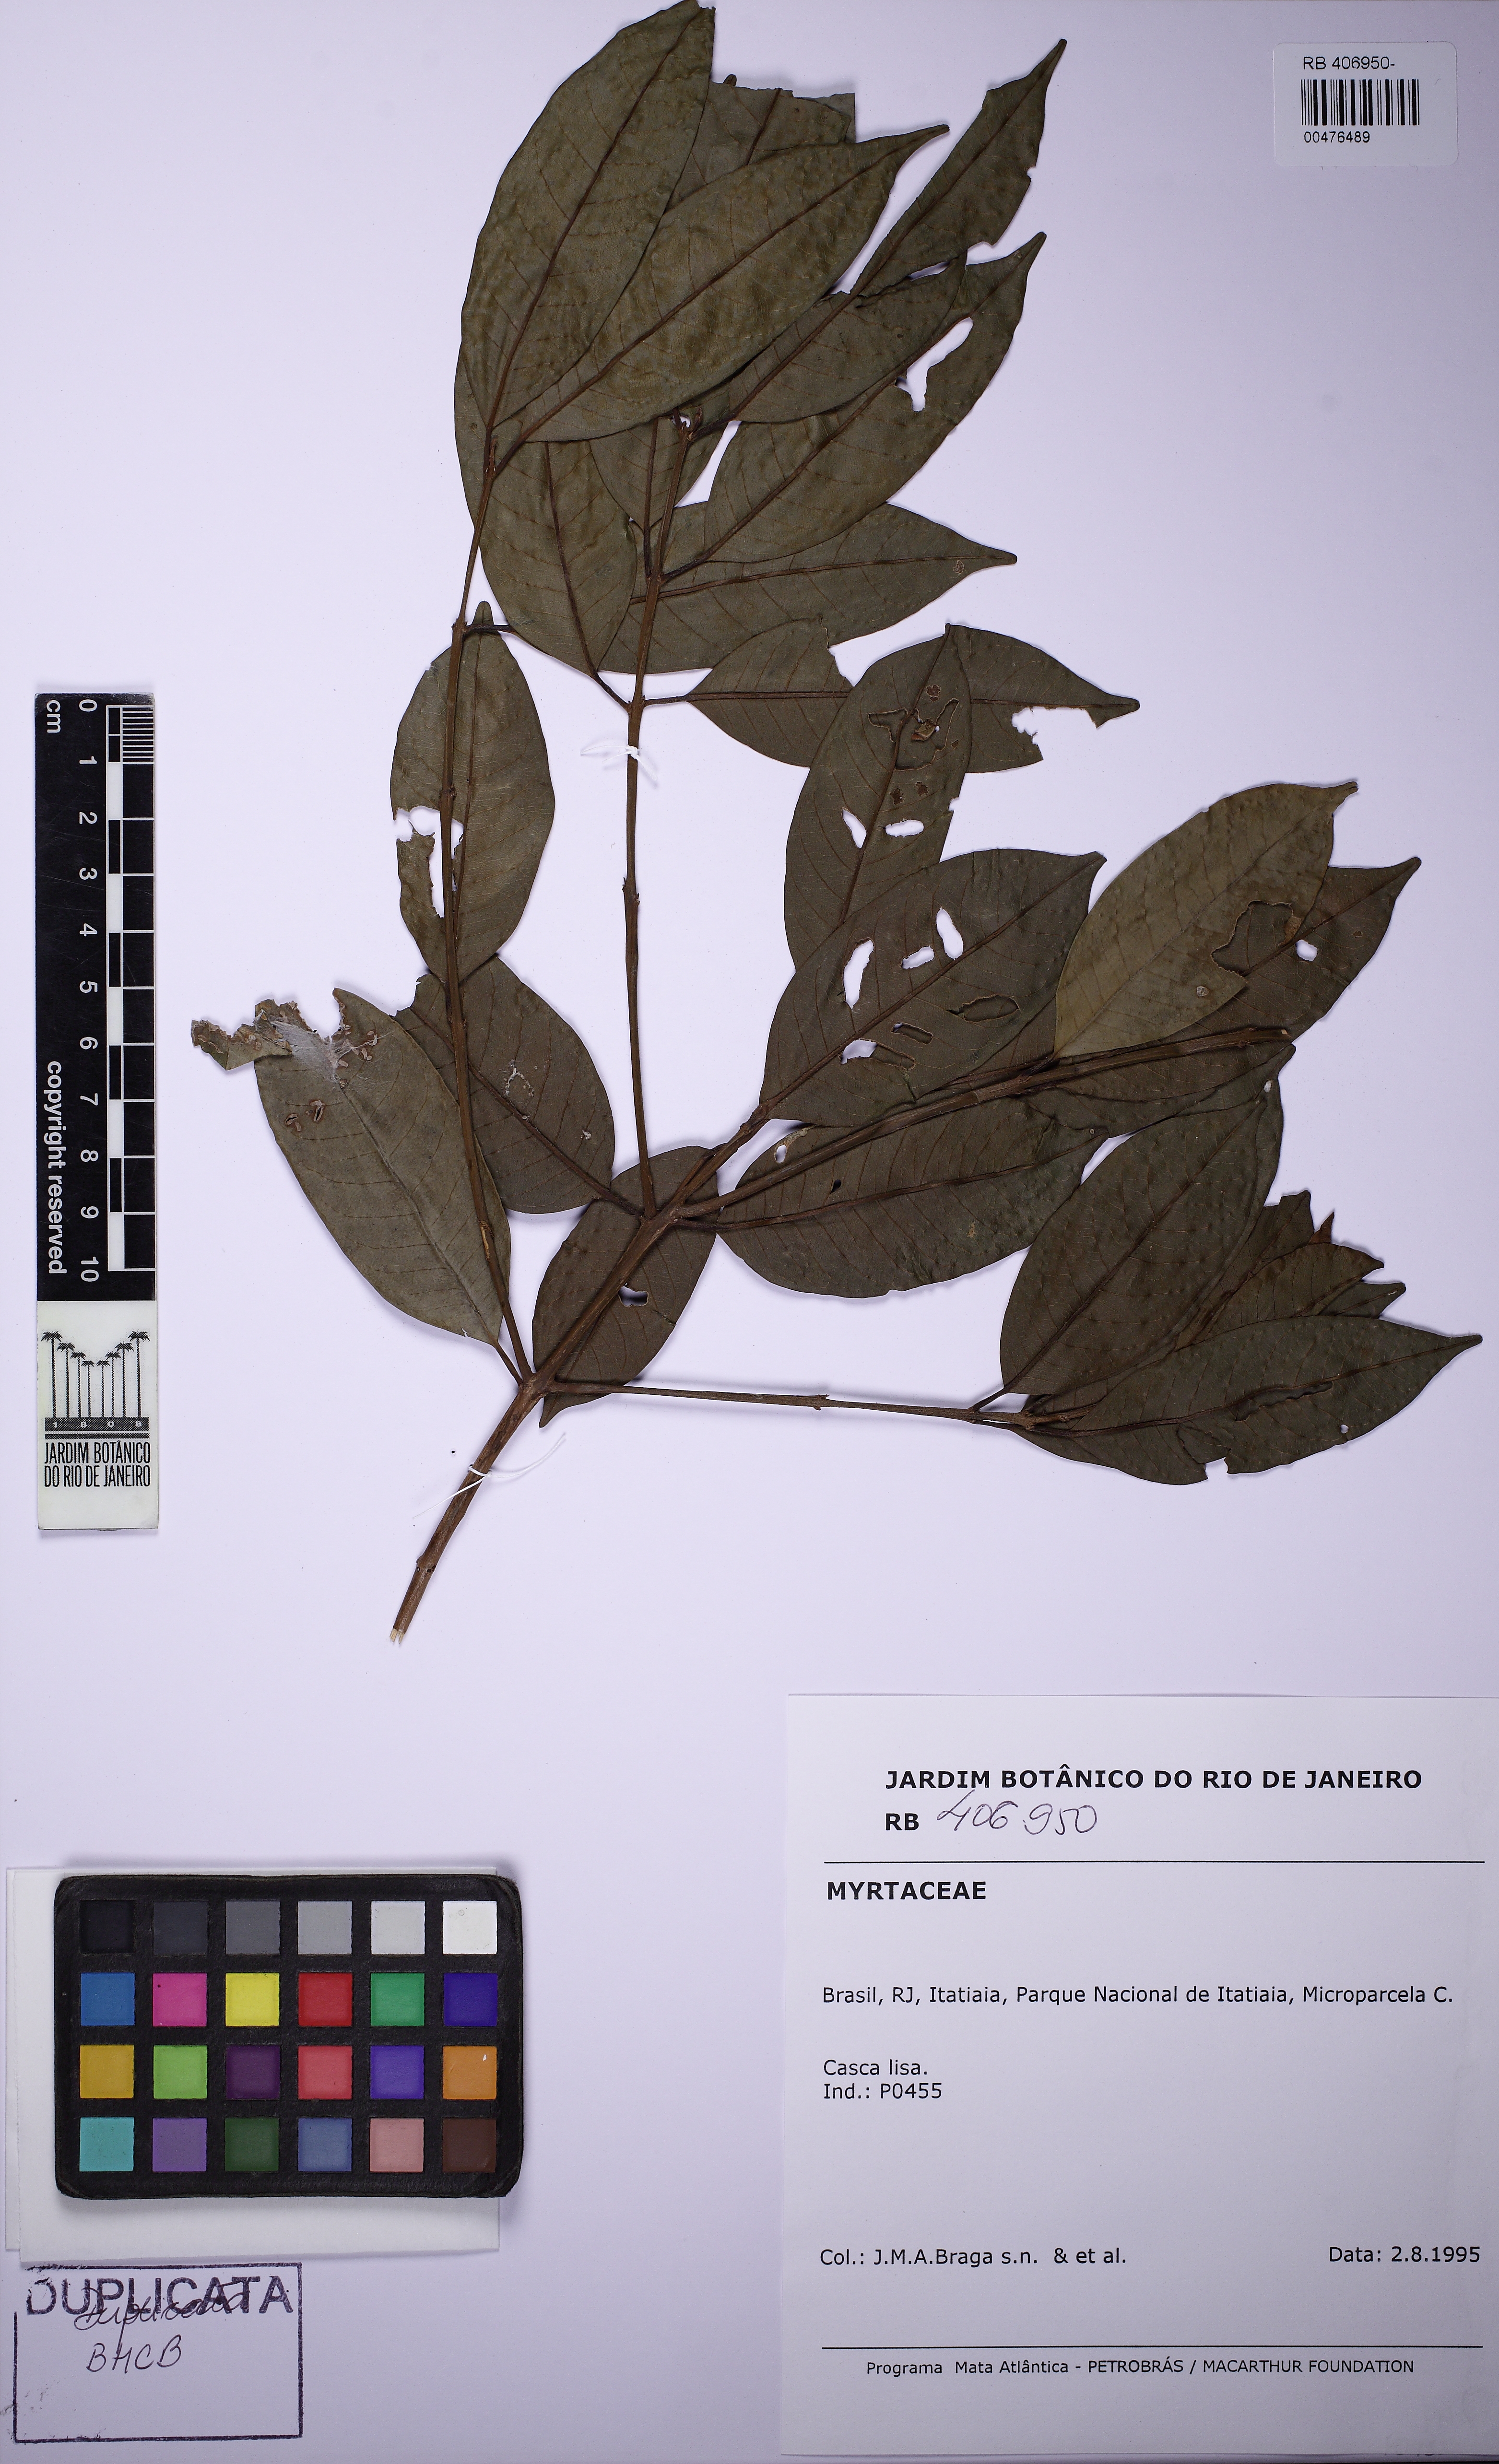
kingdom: Plantae
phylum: Tracheophyta
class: Magnoliopsida
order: Myrtales
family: Myrtaceae
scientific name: Myrtaceae
